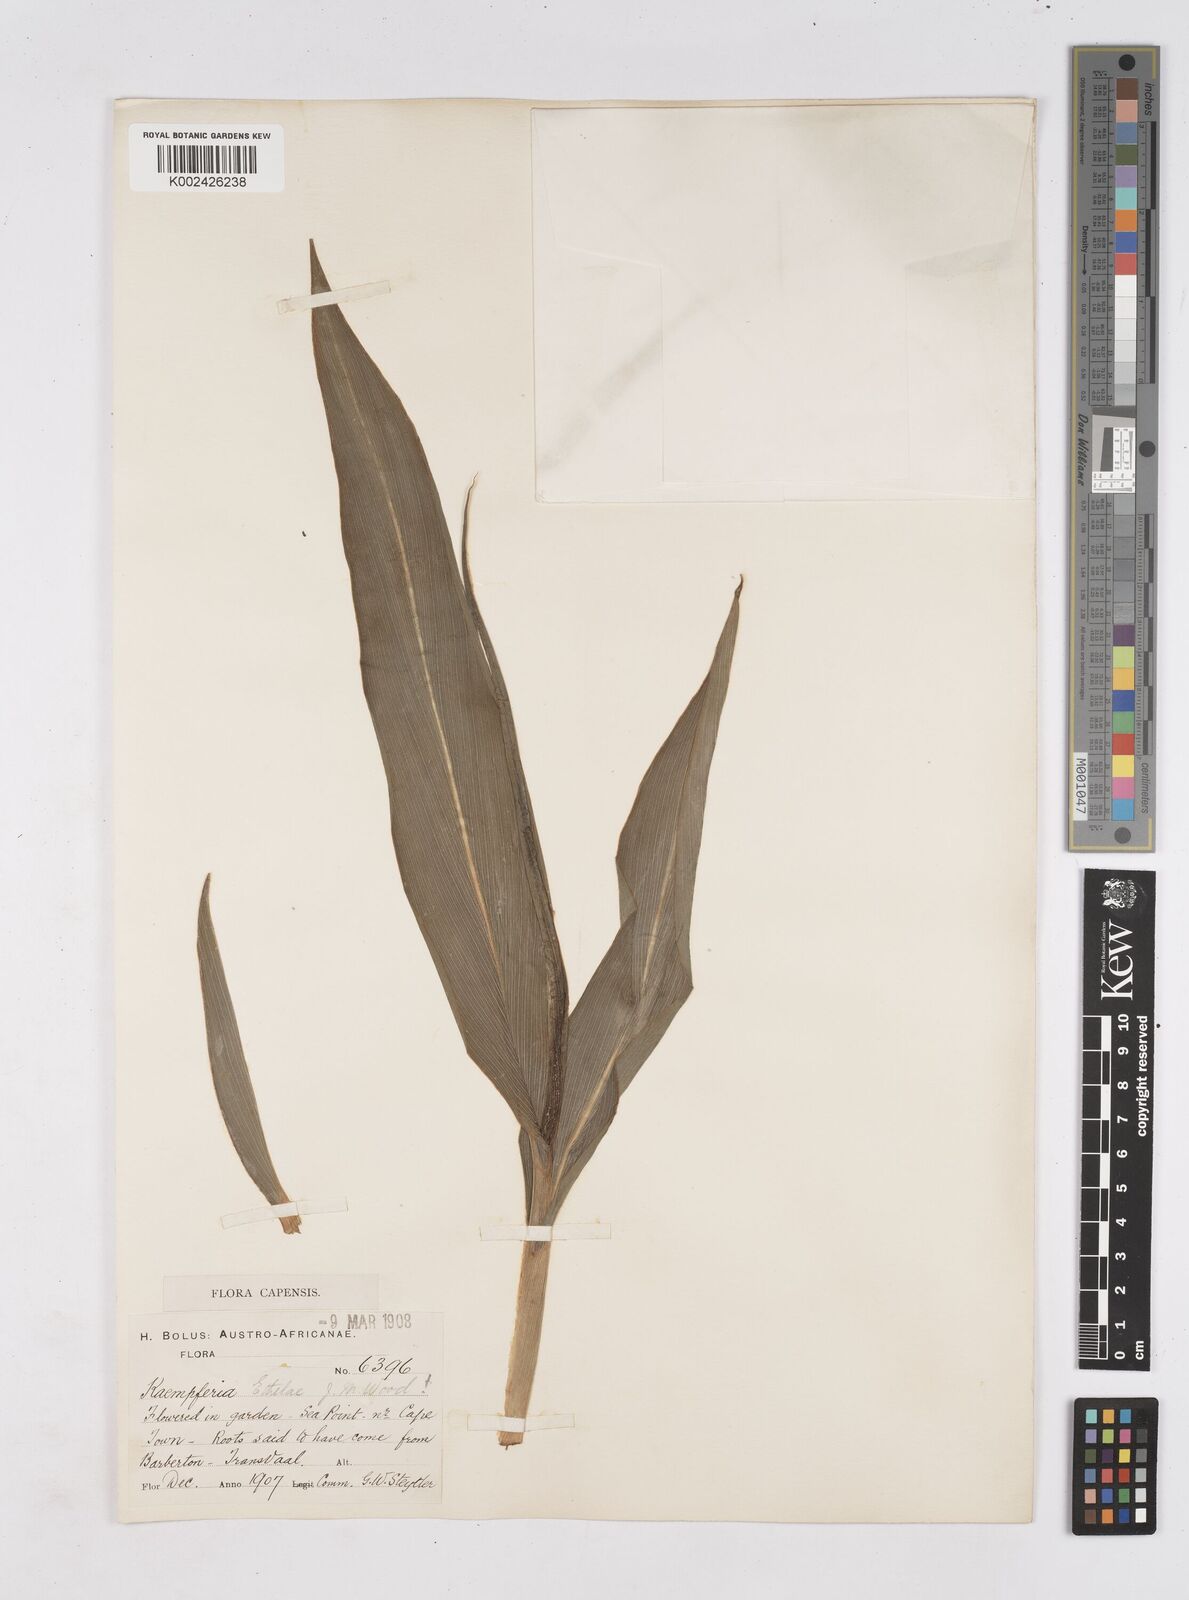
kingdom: Plantae
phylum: Tracheophyta
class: Liliopsida
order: Zingiberales
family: Zingiberaceae
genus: Siphonochilus
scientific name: Siphonochilus
